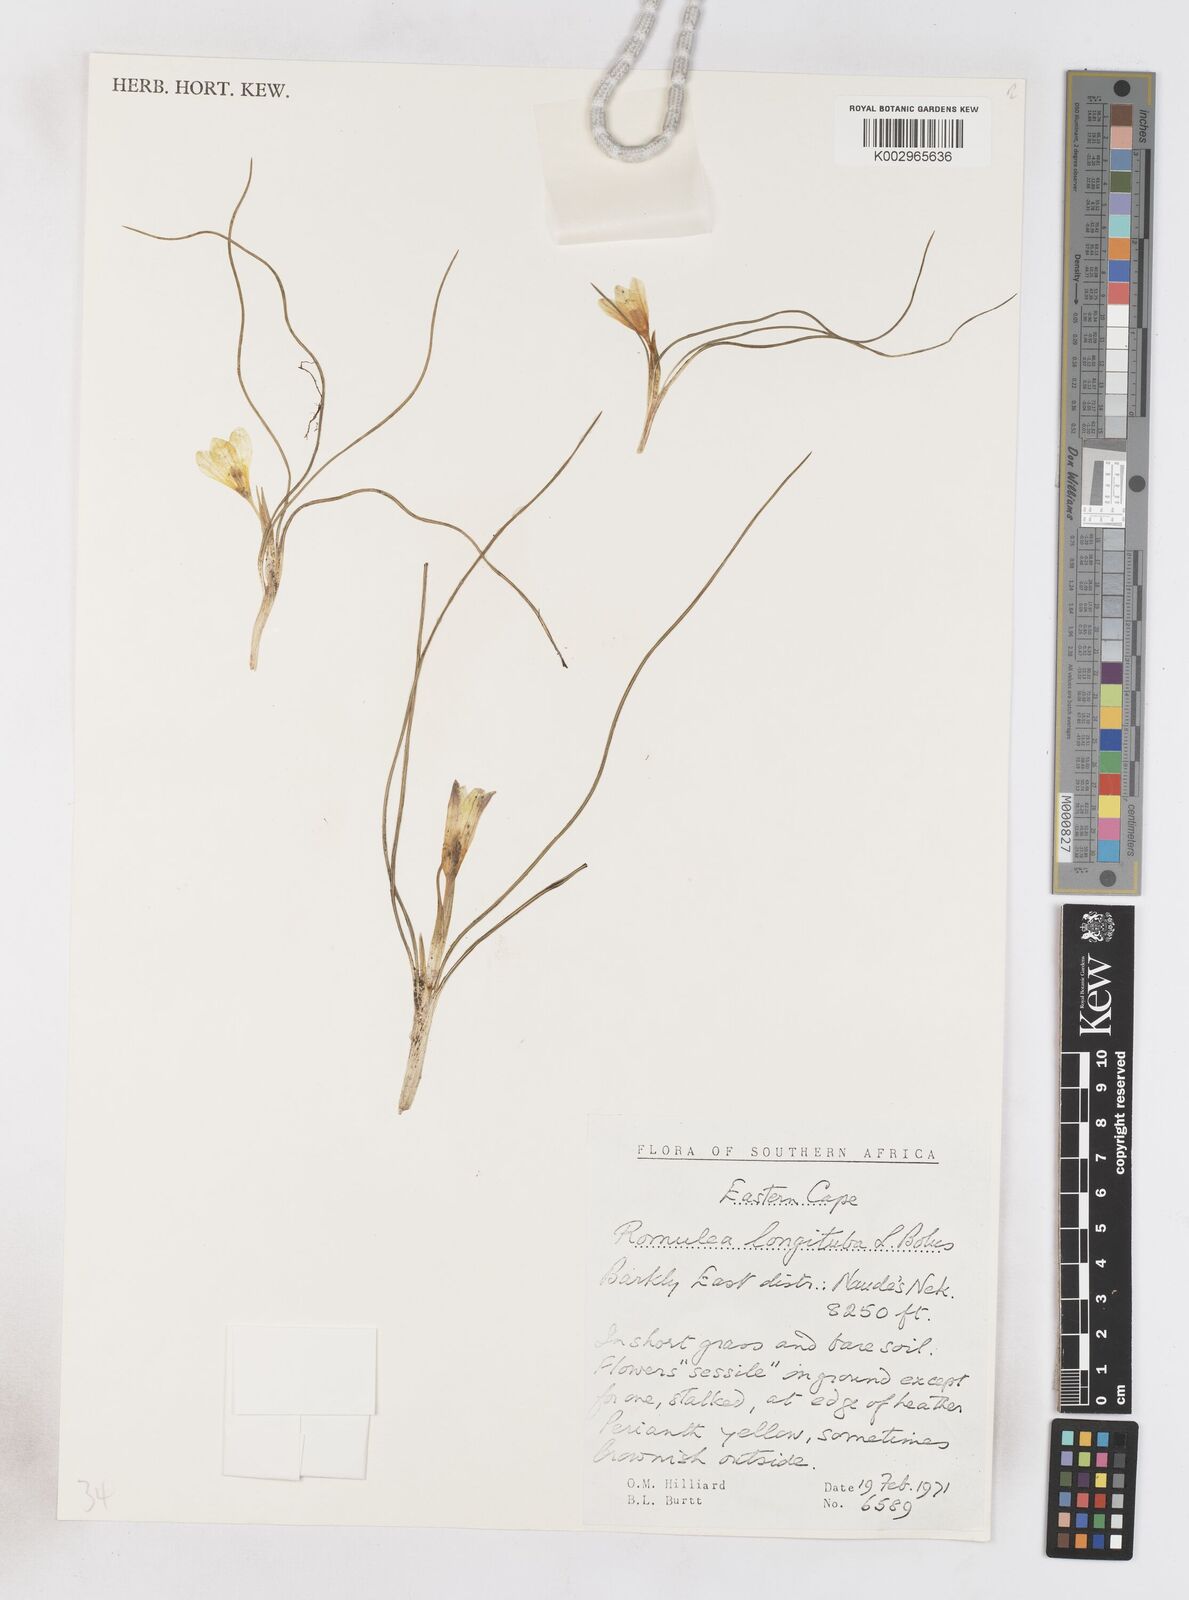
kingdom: Plantae
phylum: Tracheophyta
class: Liliopsida
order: Asparagales
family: Iridaceae
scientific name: Iridaceae
